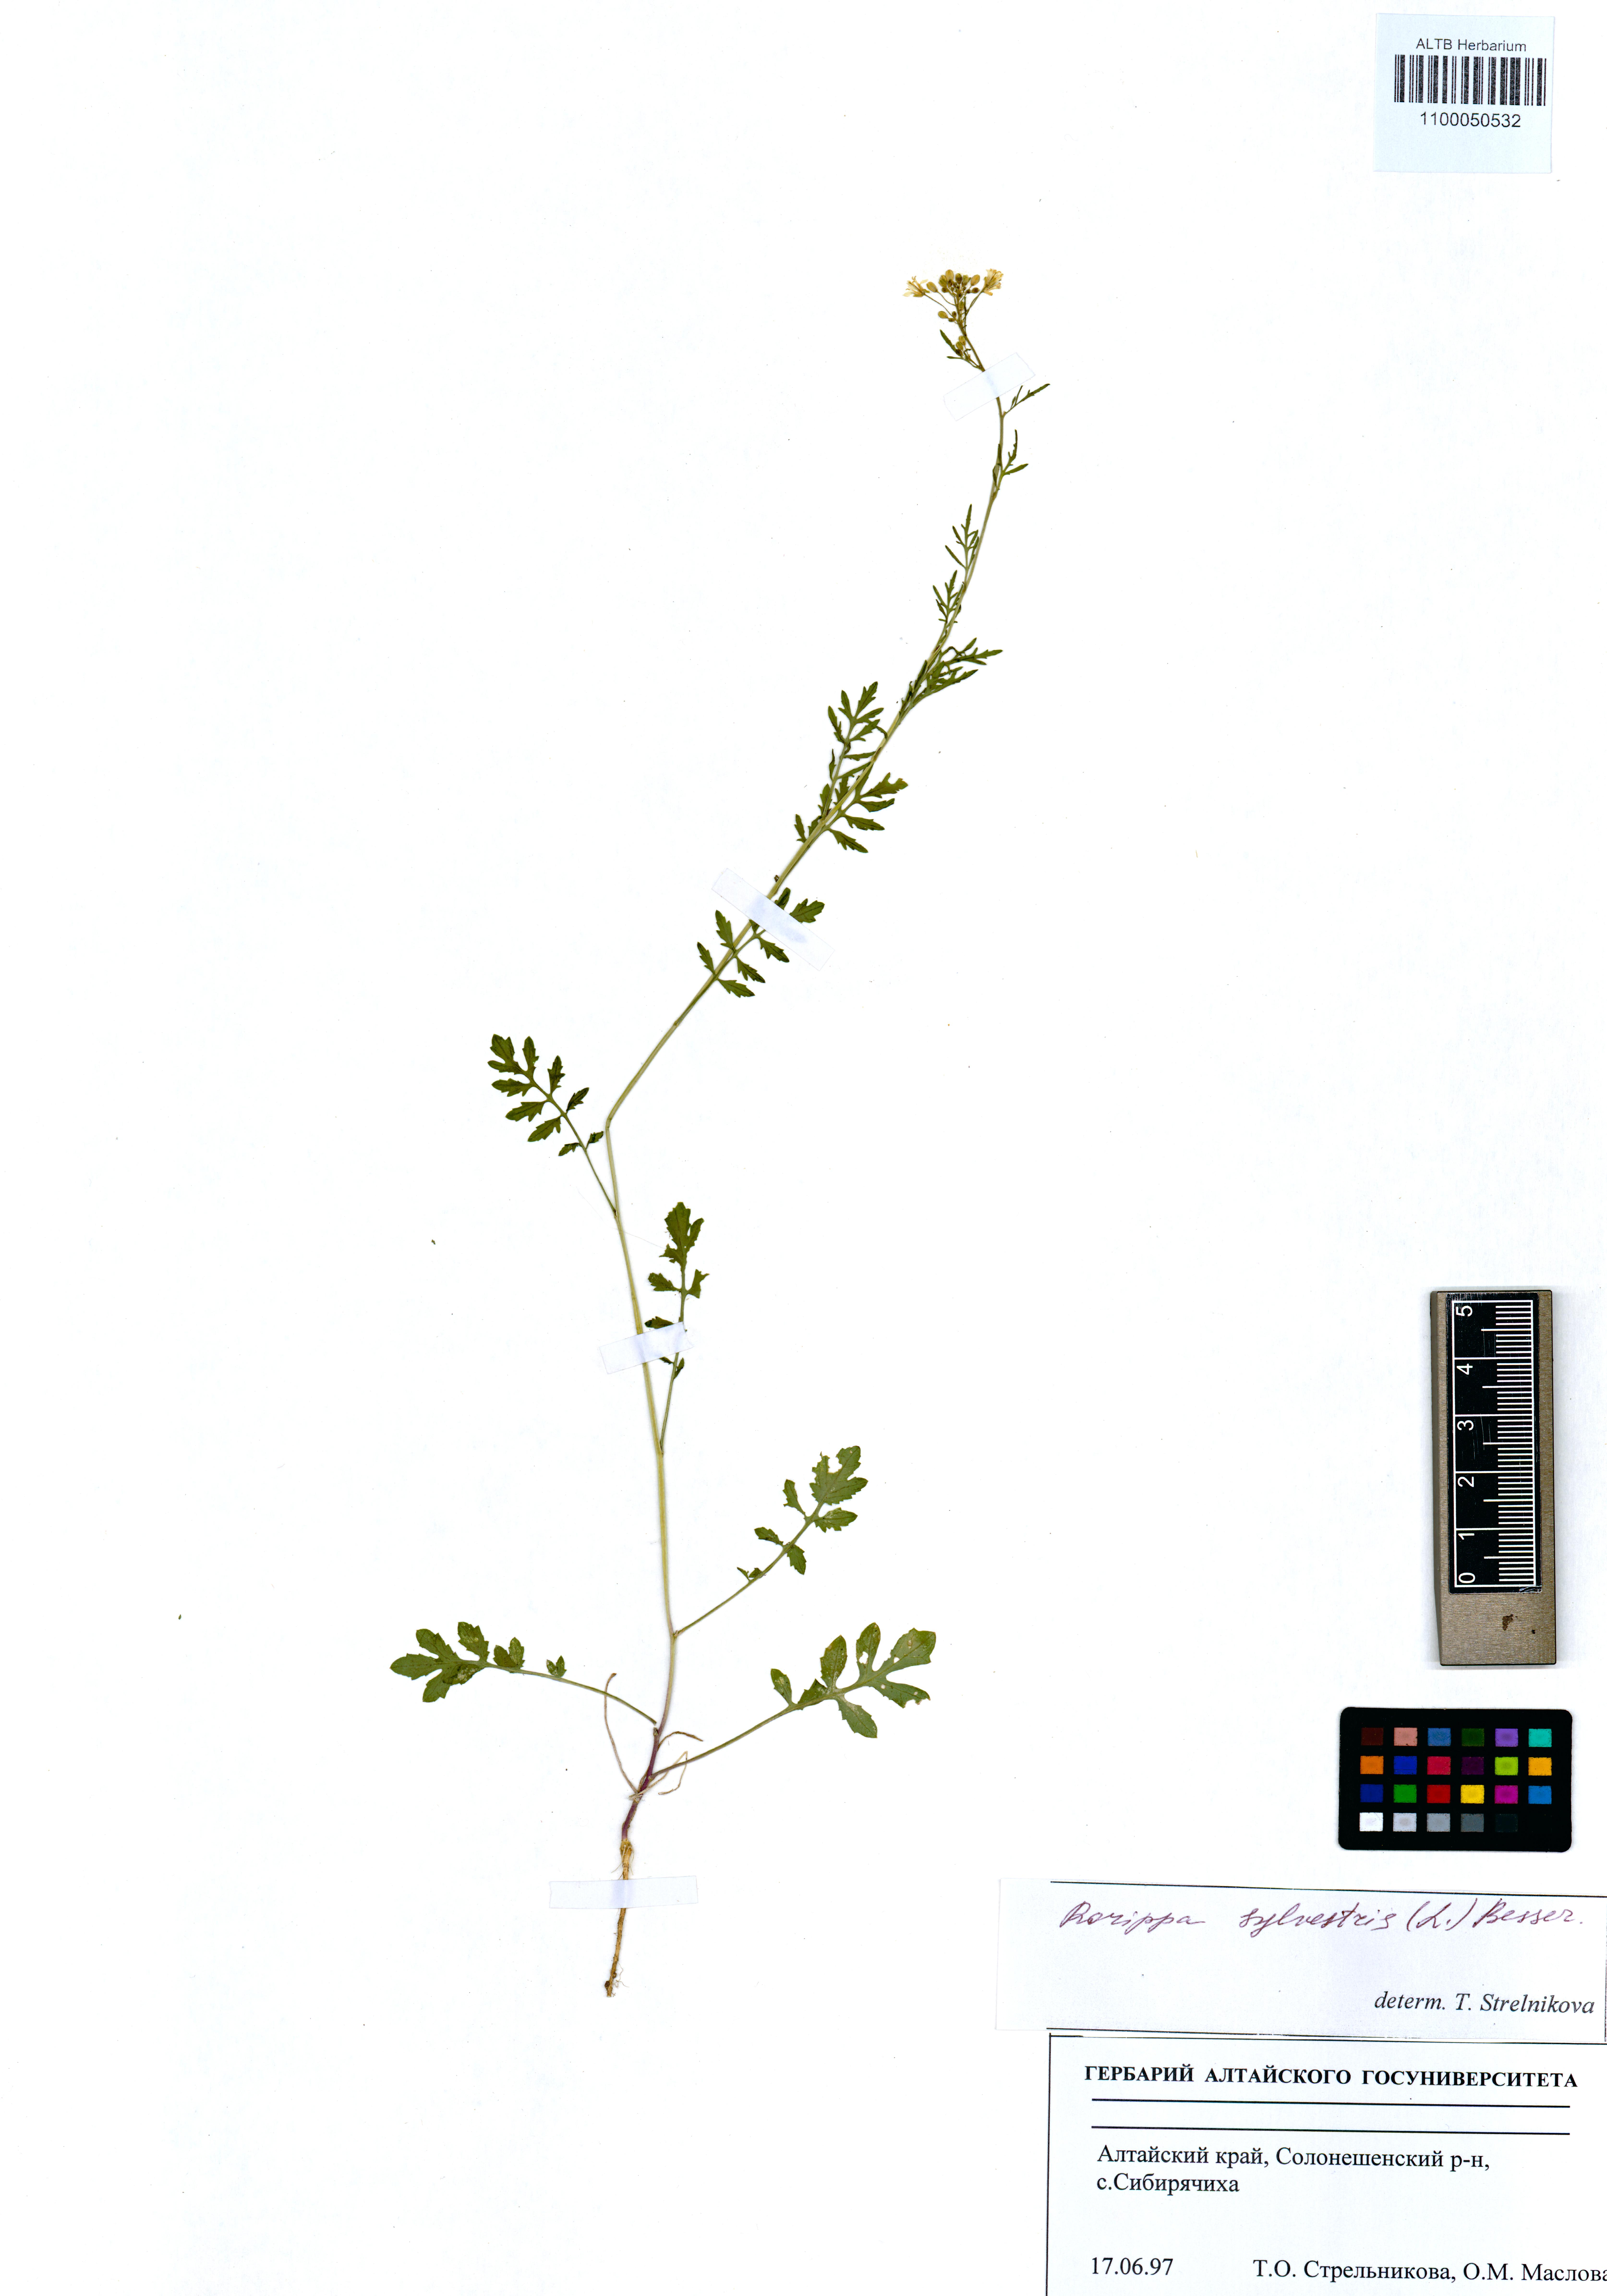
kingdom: Plantae
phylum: Tracheophyta
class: Magnoliopsida
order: Brassicales
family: Brassicaceae
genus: Rorippa
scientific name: Rorippa sylvestris
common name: Creeping yellowcress
